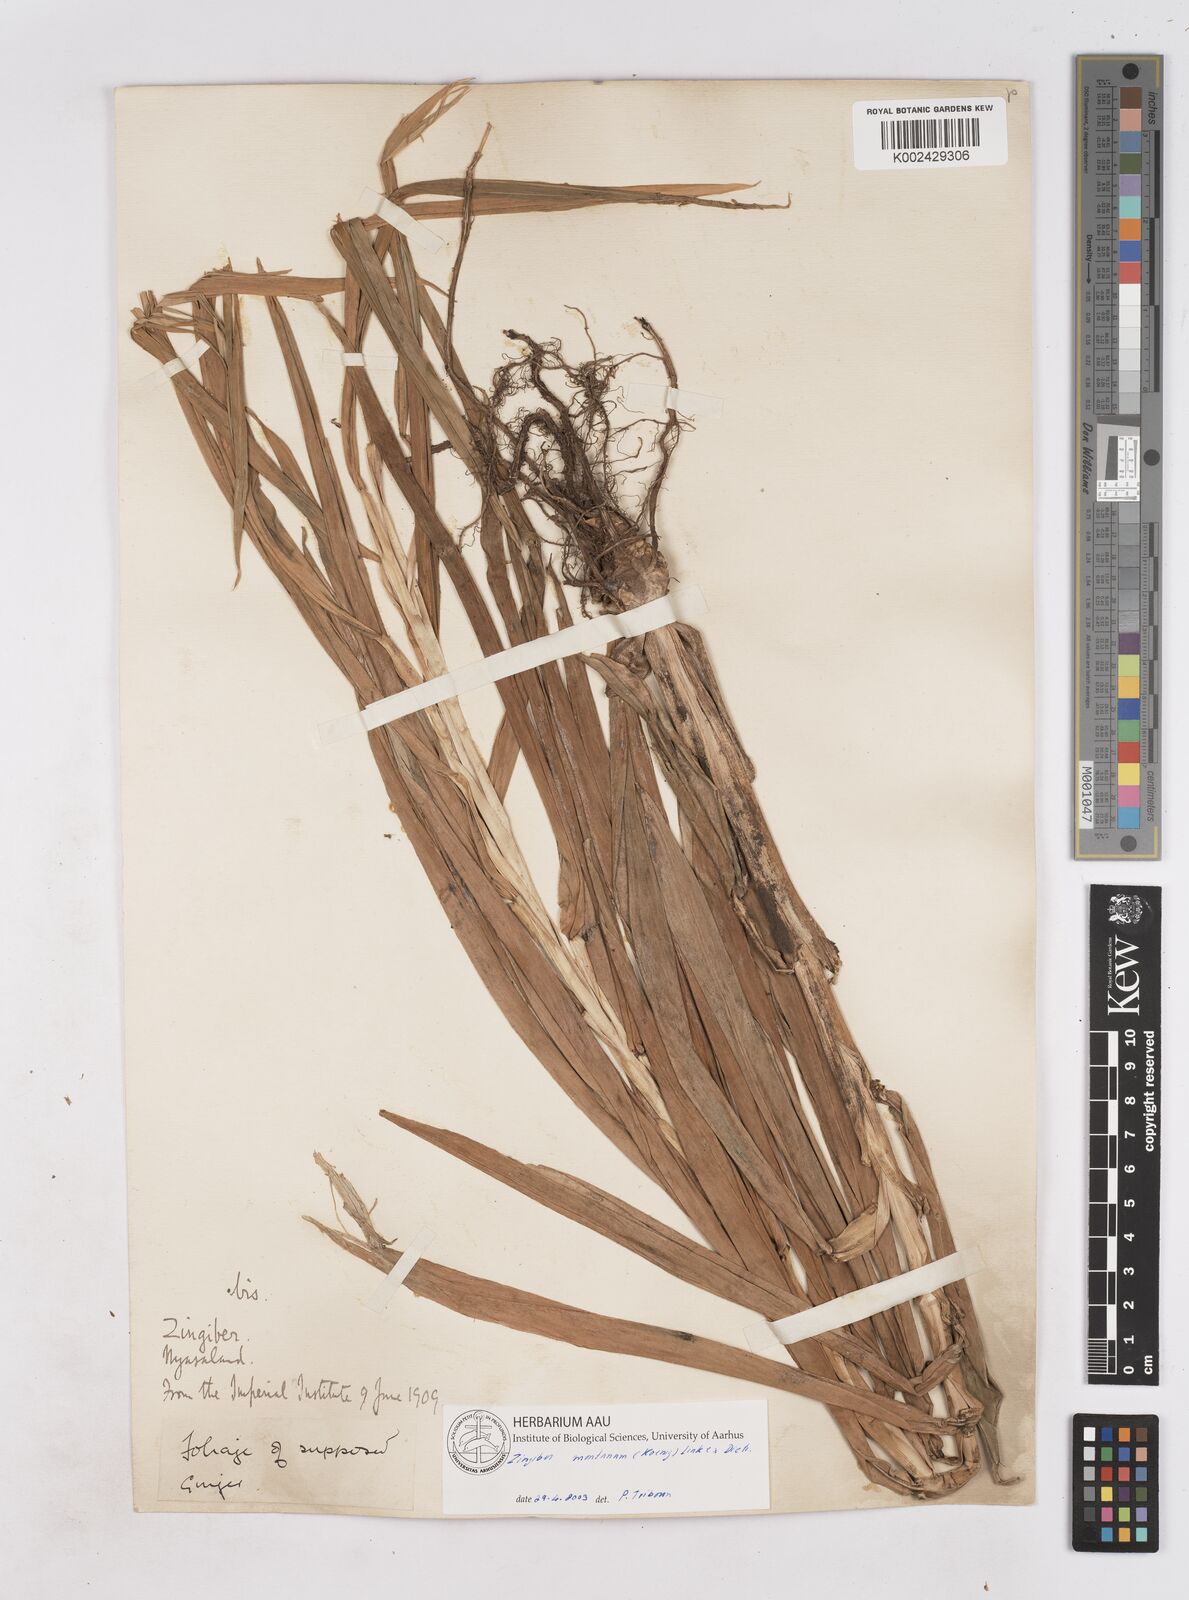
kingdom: Plantae
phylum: Tracheophyta
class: Liliopsida
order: Zingiberales
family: Zingiberaceae
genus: Zingiber
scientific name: Zingiber montanum
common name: Bengal ginger
